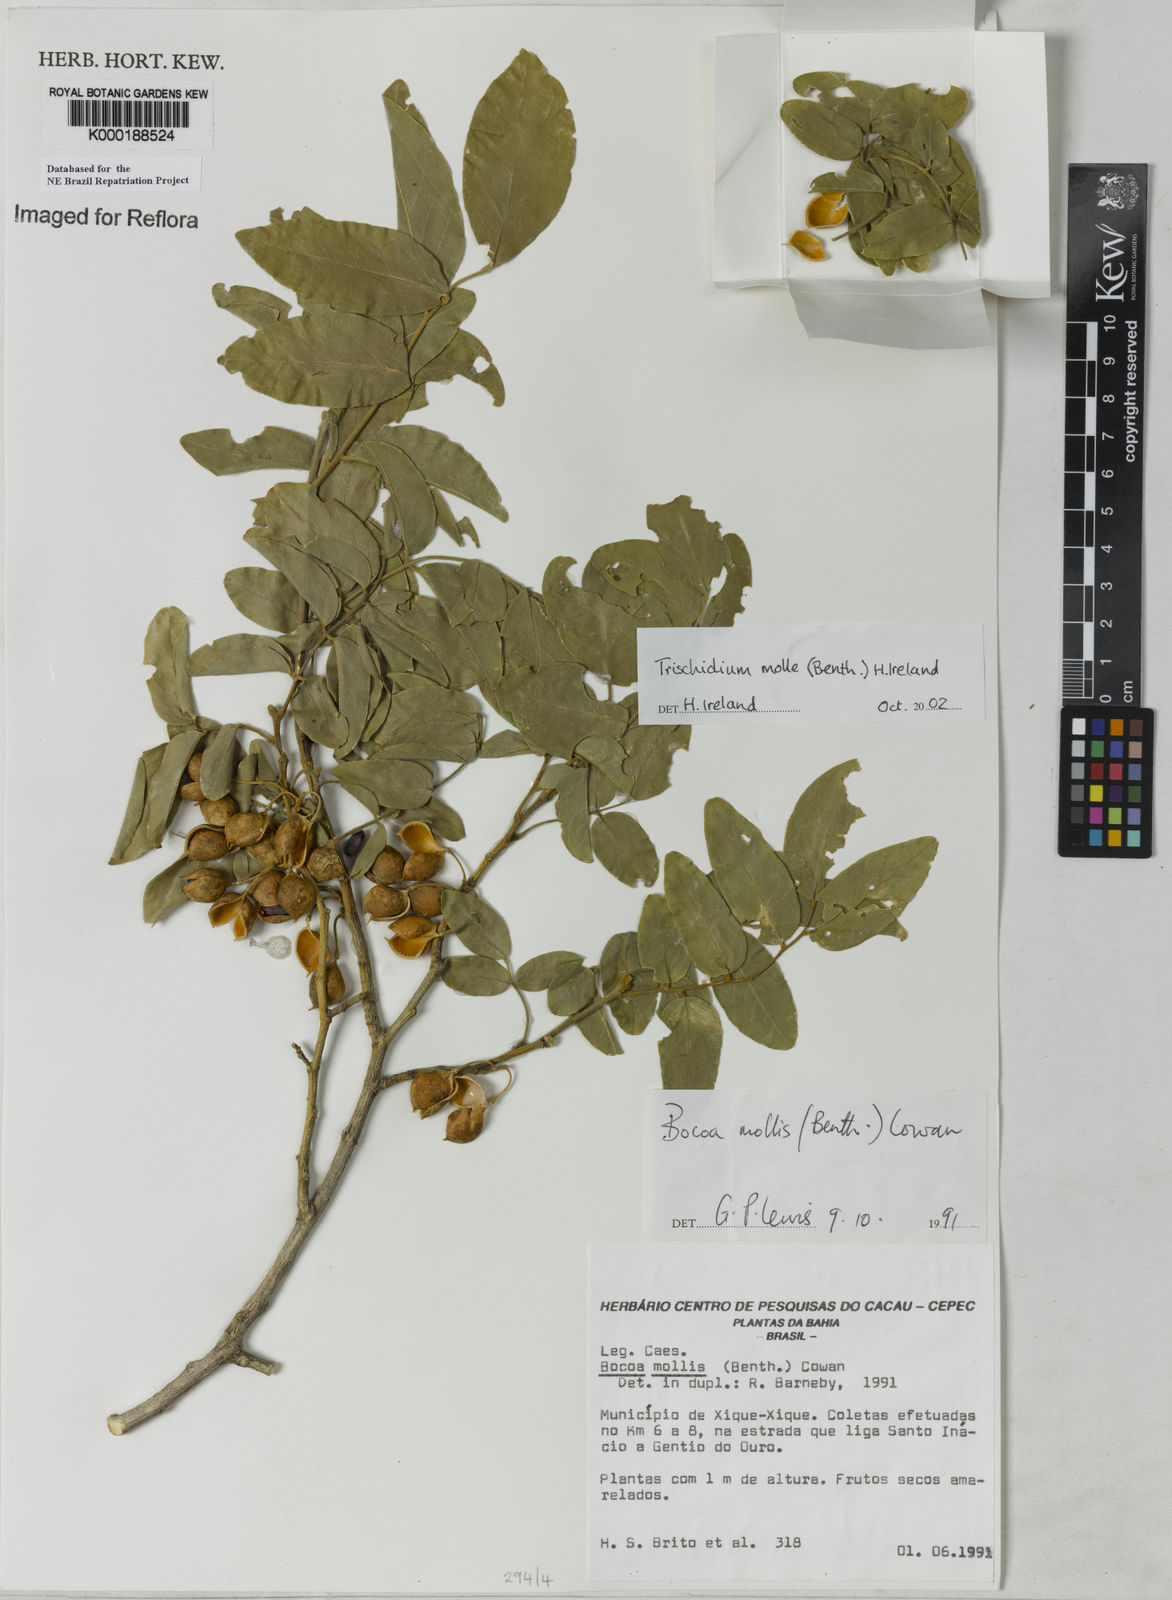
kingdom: Plantae
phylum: Tracheophyta
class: Magnoliopsida
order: Fabales
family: Fabaceae
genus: Trischidium
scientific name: Trischidium
